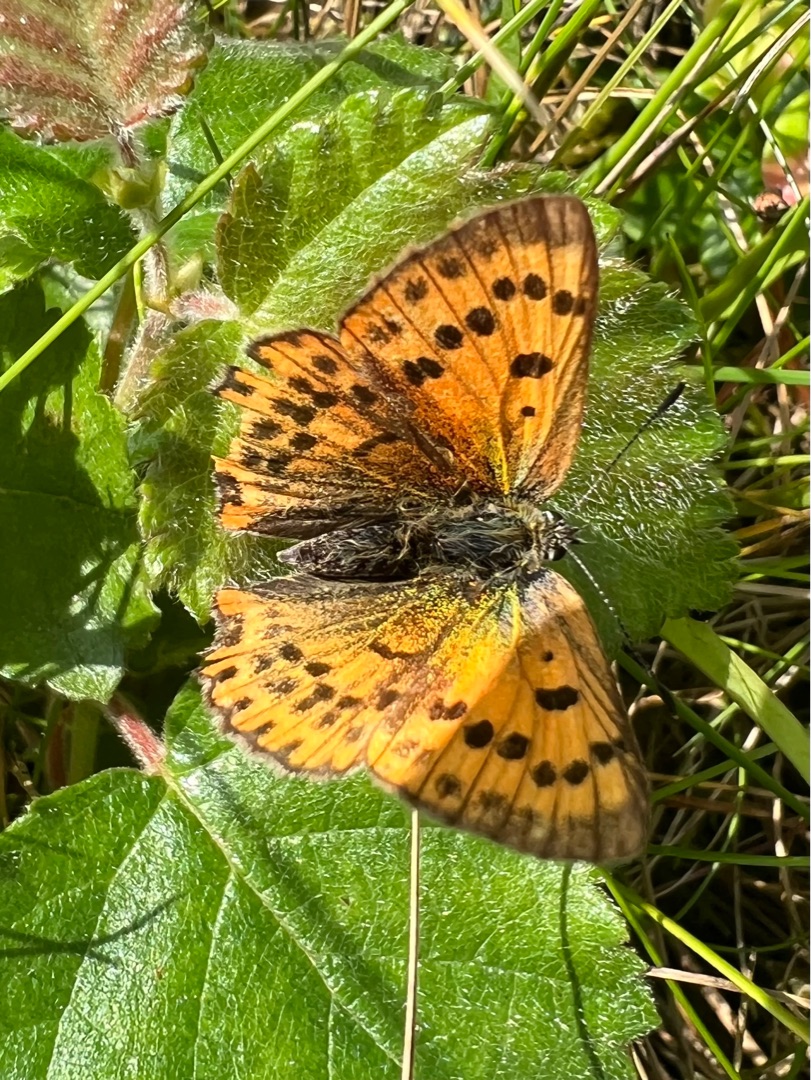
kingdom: Animalia
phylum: Arthropoda
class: Insecta
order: Lepidoptera
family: Lycaenidae
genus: Lycaena
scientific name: Lycaena virgaureae
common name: Dukatsommerfugl
